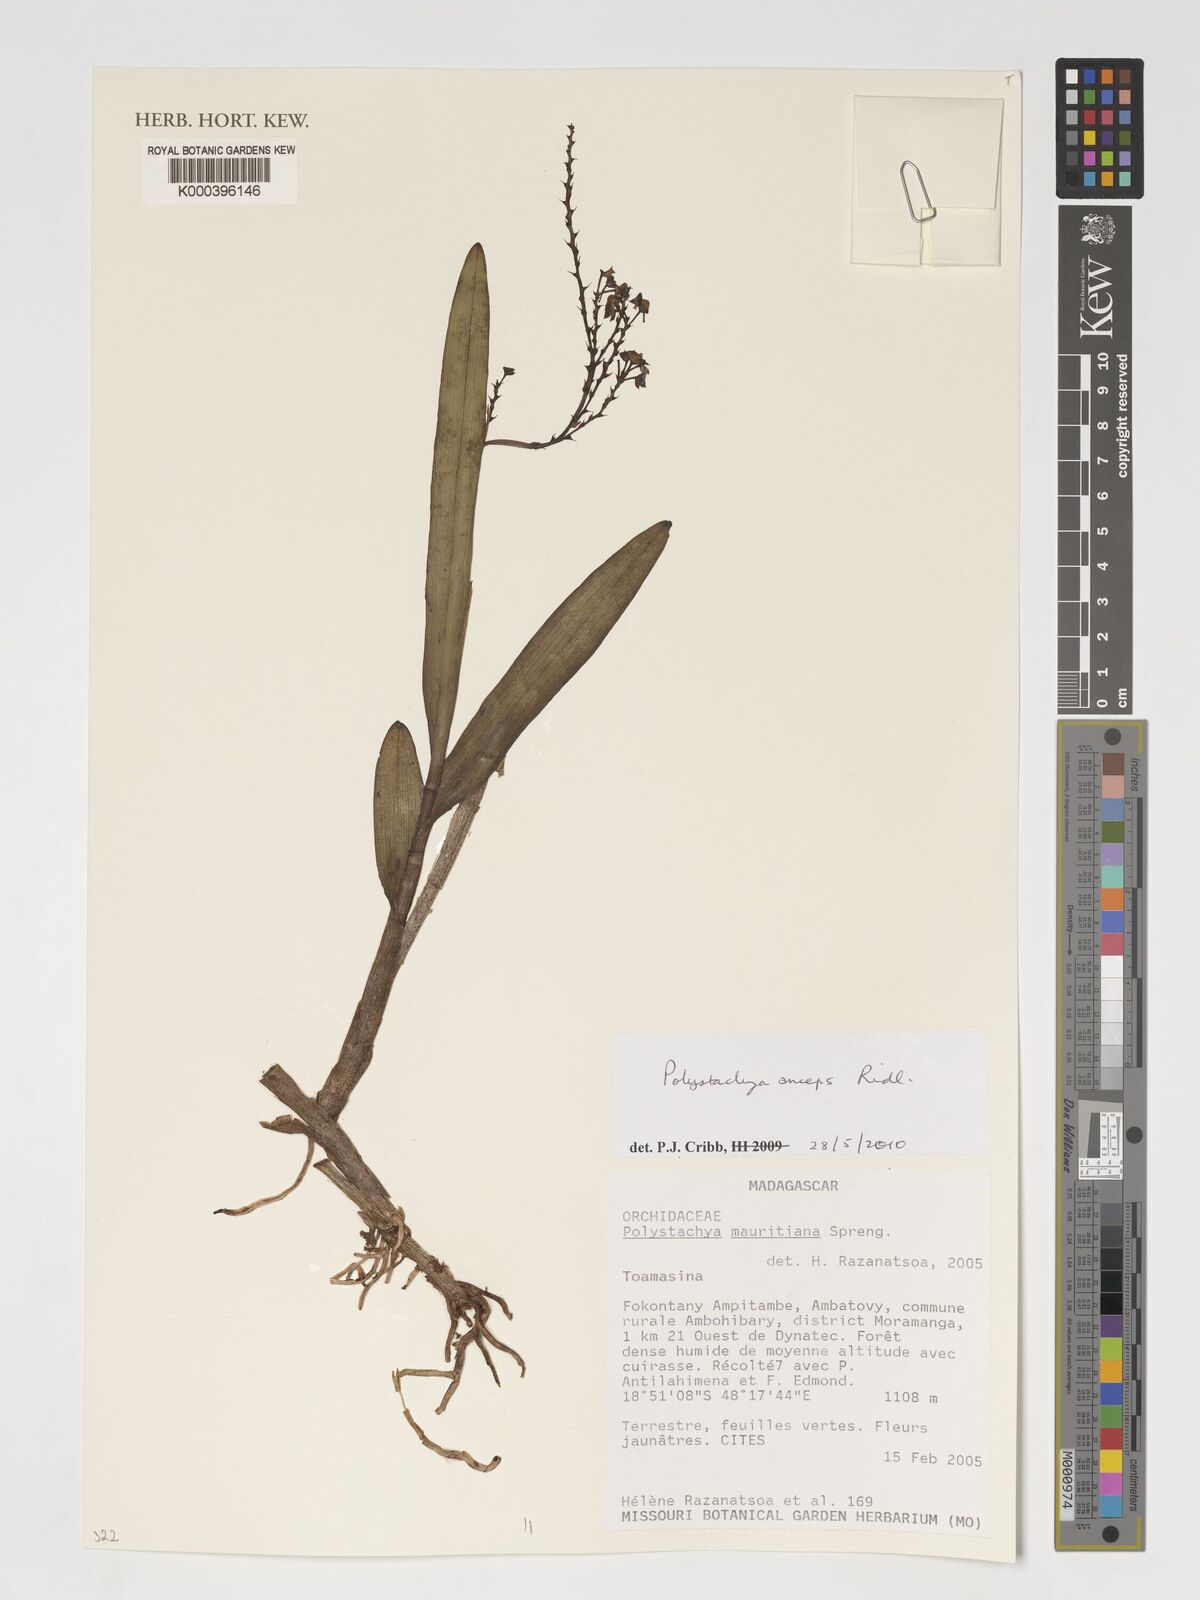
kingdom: Plantae
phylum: Tracheophyta
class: Liliopsida
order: Asparagales
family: Orchidaceae
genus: Polystachya
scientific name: Polystachya anceps
